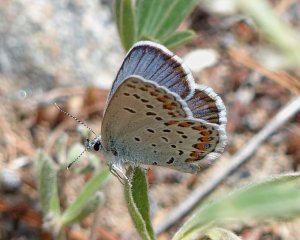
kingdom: Animalia
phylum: Arthropoda
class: Insecta
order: Lepidoptera
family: Lycaenidae
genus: Lycaeides
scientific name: Lycaeides idas
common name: Northern Blue
